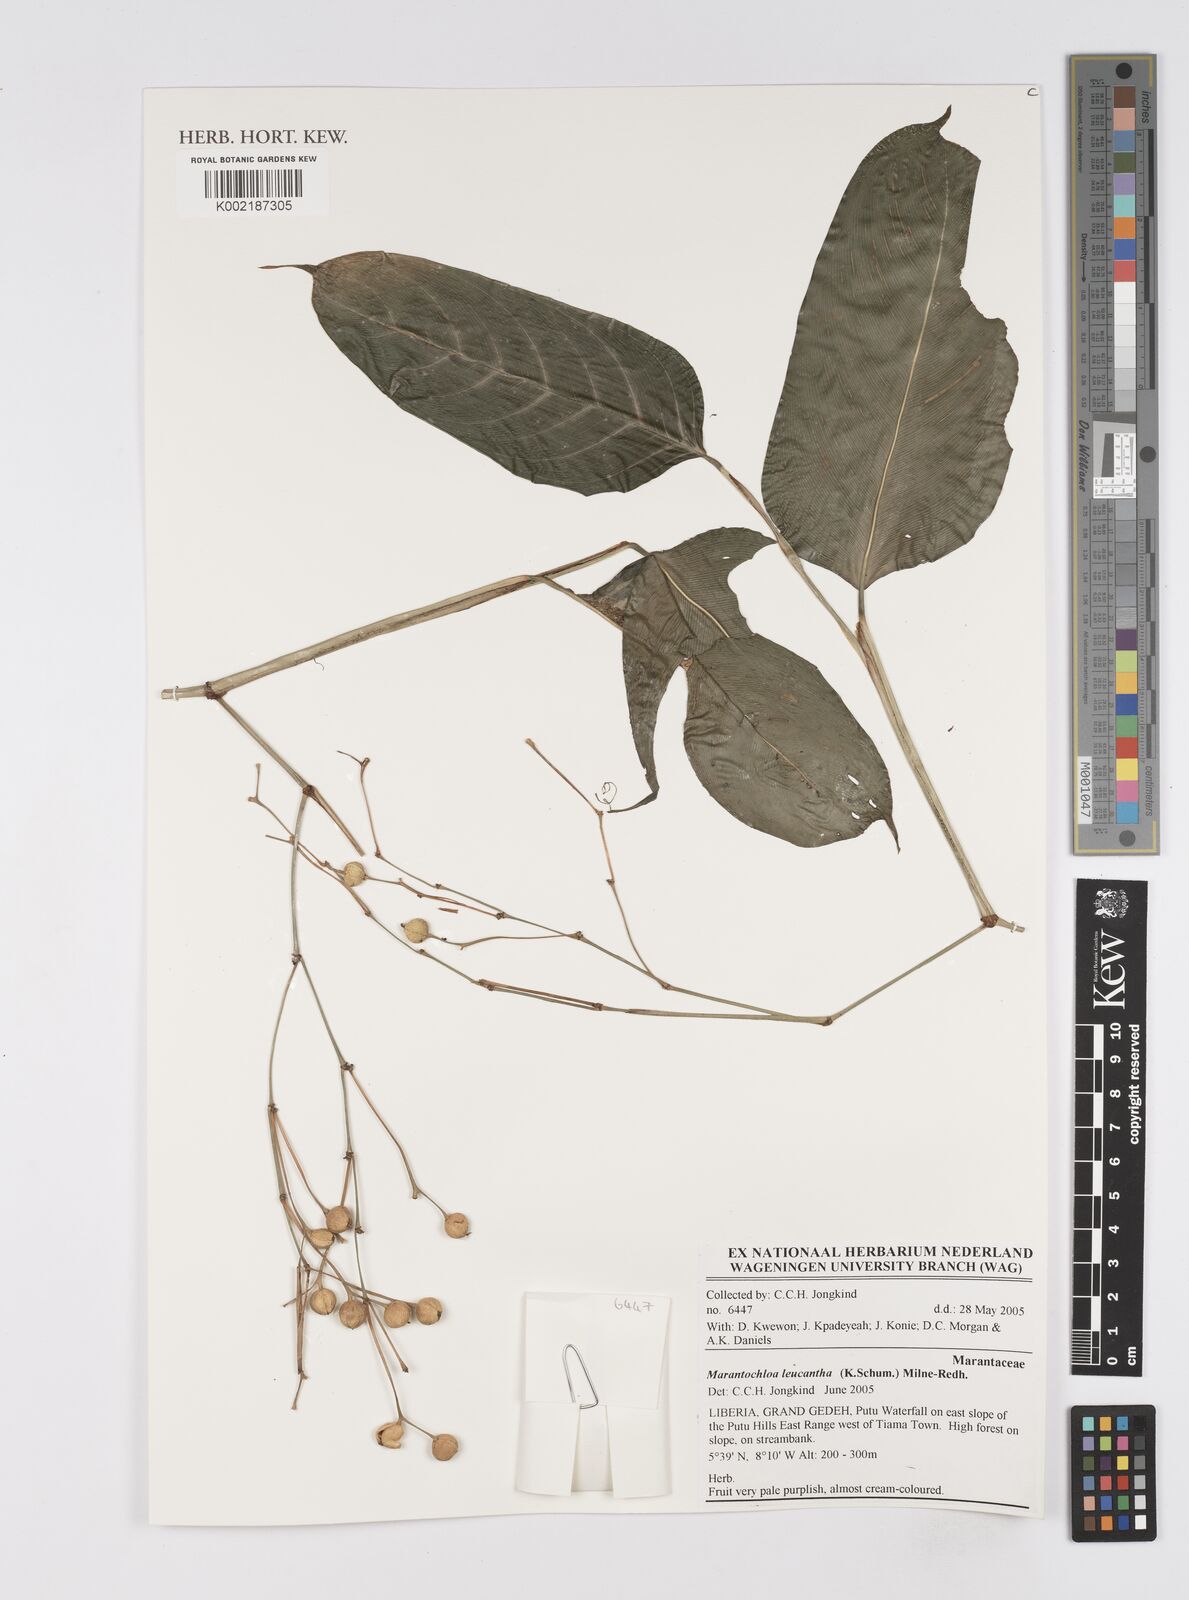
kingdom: Plantae
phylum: Tracheophyta
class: Liliopsida
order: Zingiberales
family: Marantaceae
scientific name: Marantaceae
